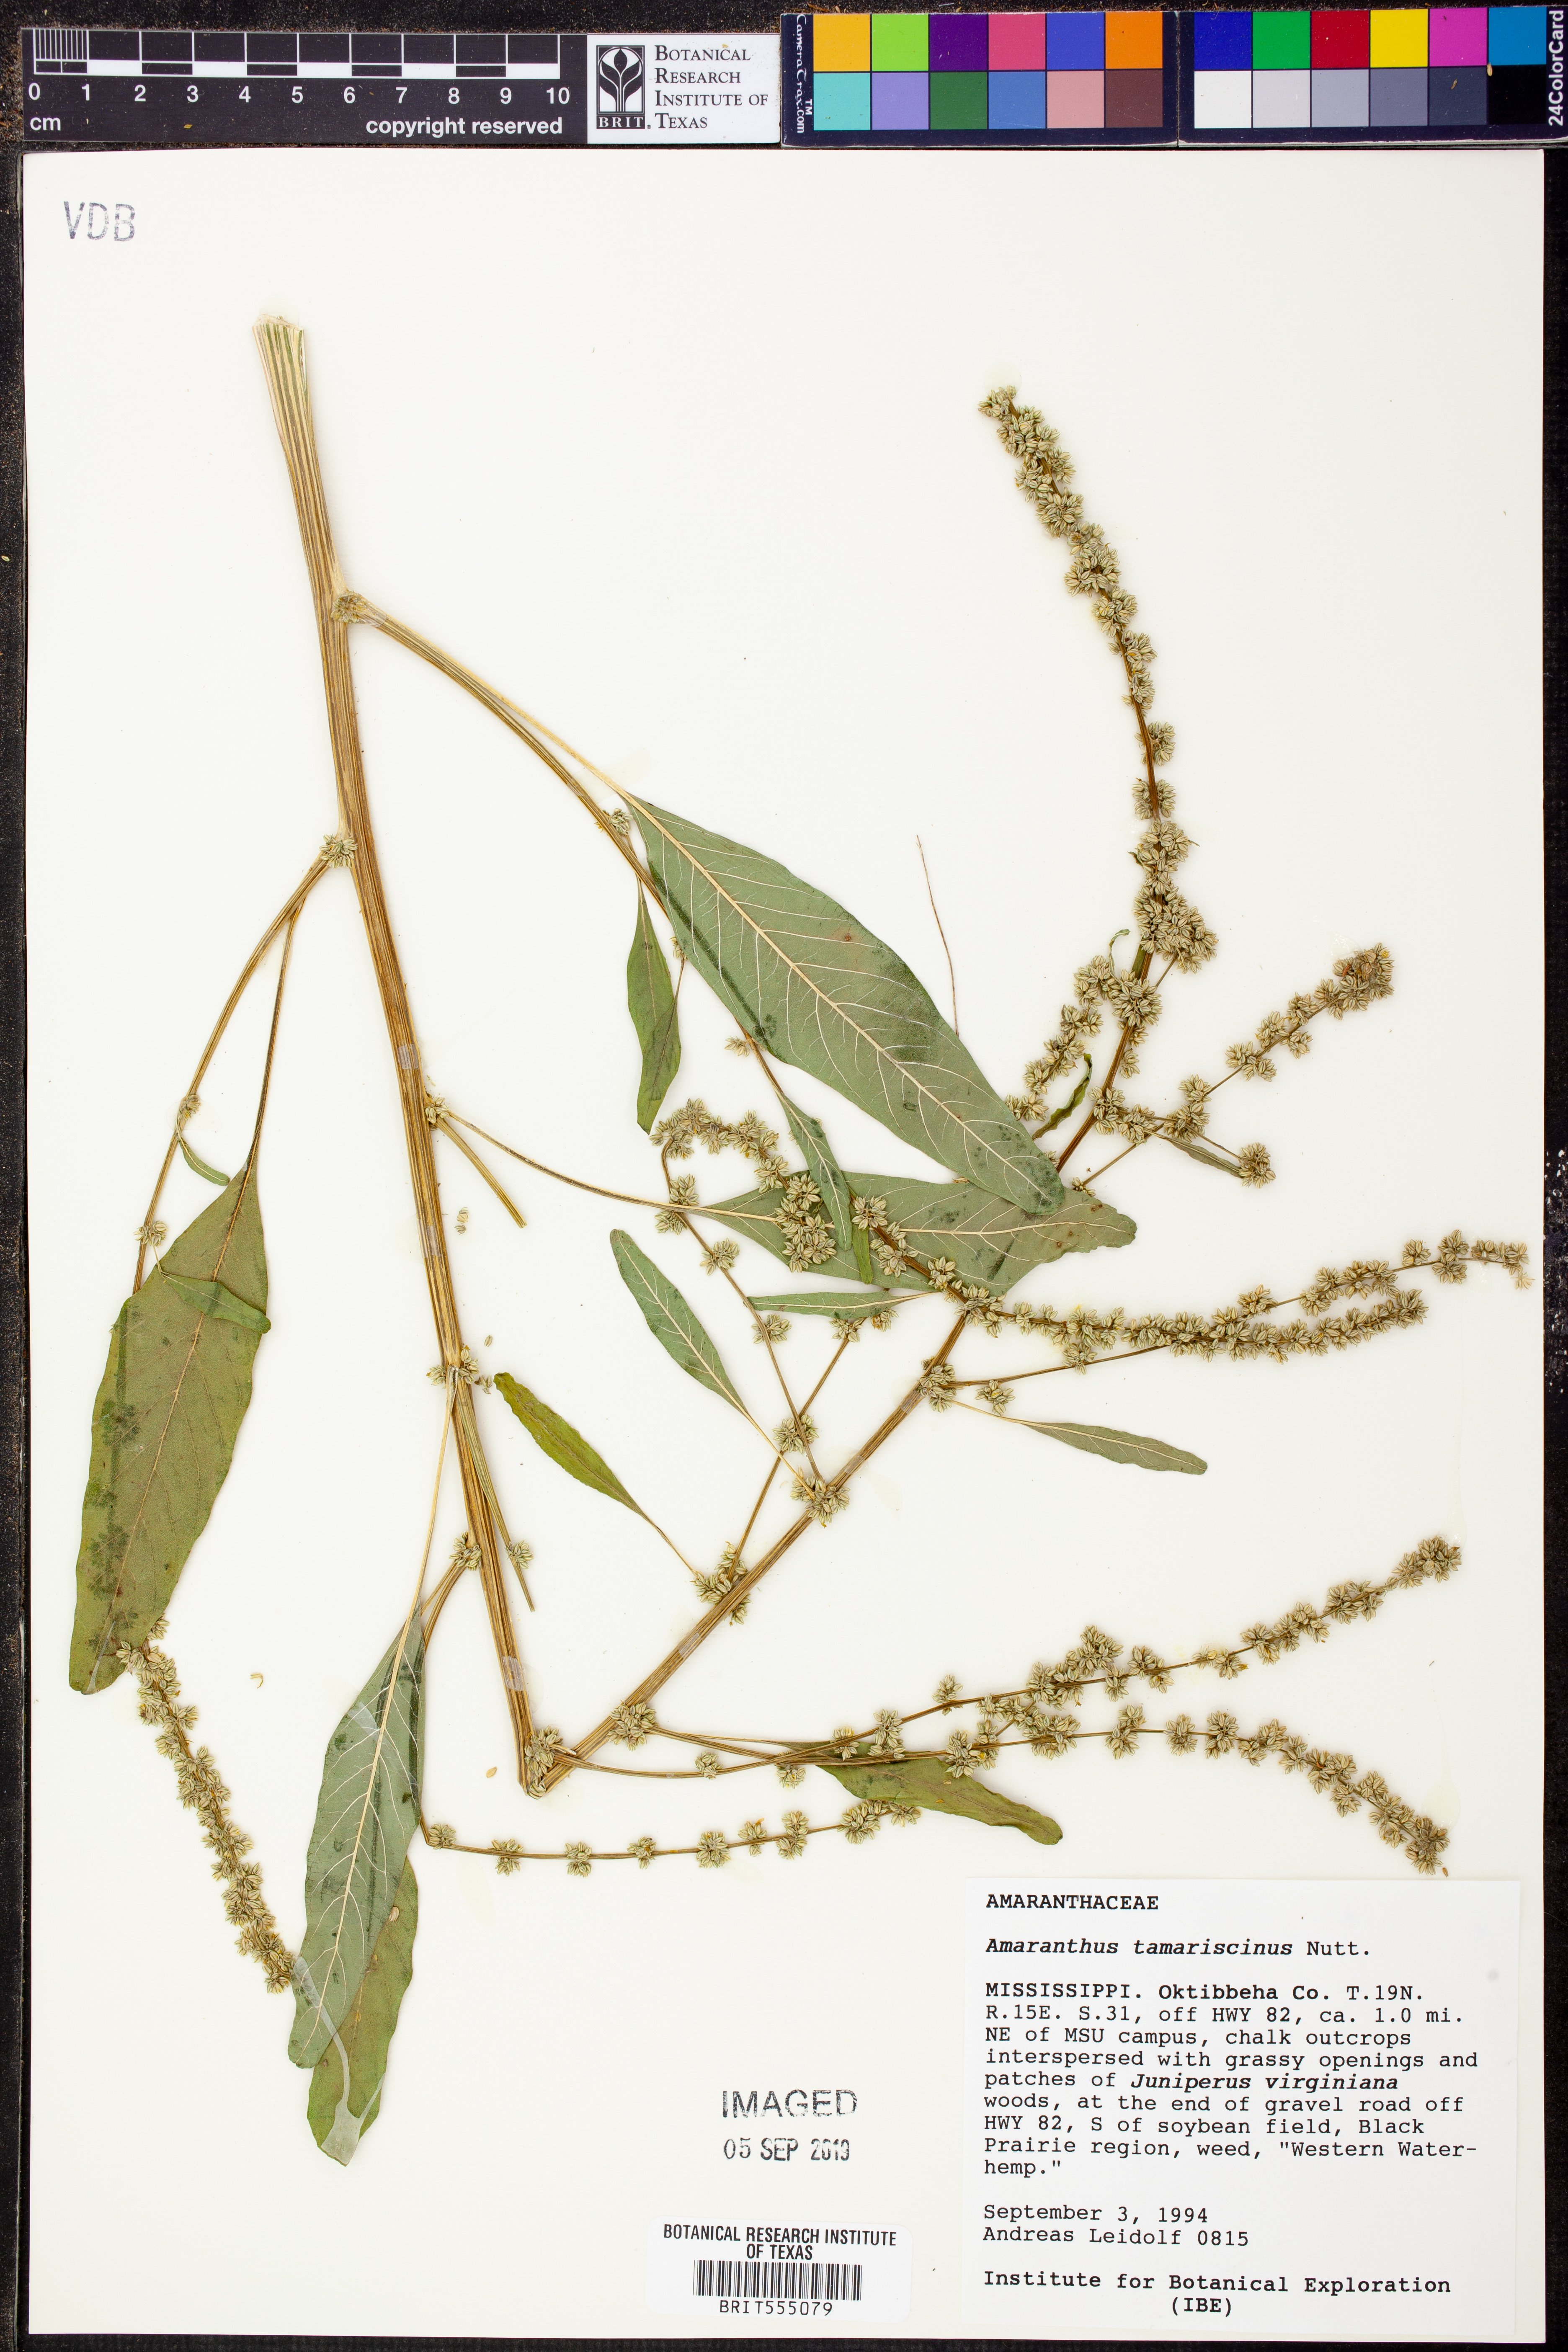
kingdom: Plantae
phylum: Tracheophyta
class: Magnoliopsida
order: Caryophyllales
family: Amaranthaceae
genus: Amaranthus
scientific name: Amaranthus tamariscinus
